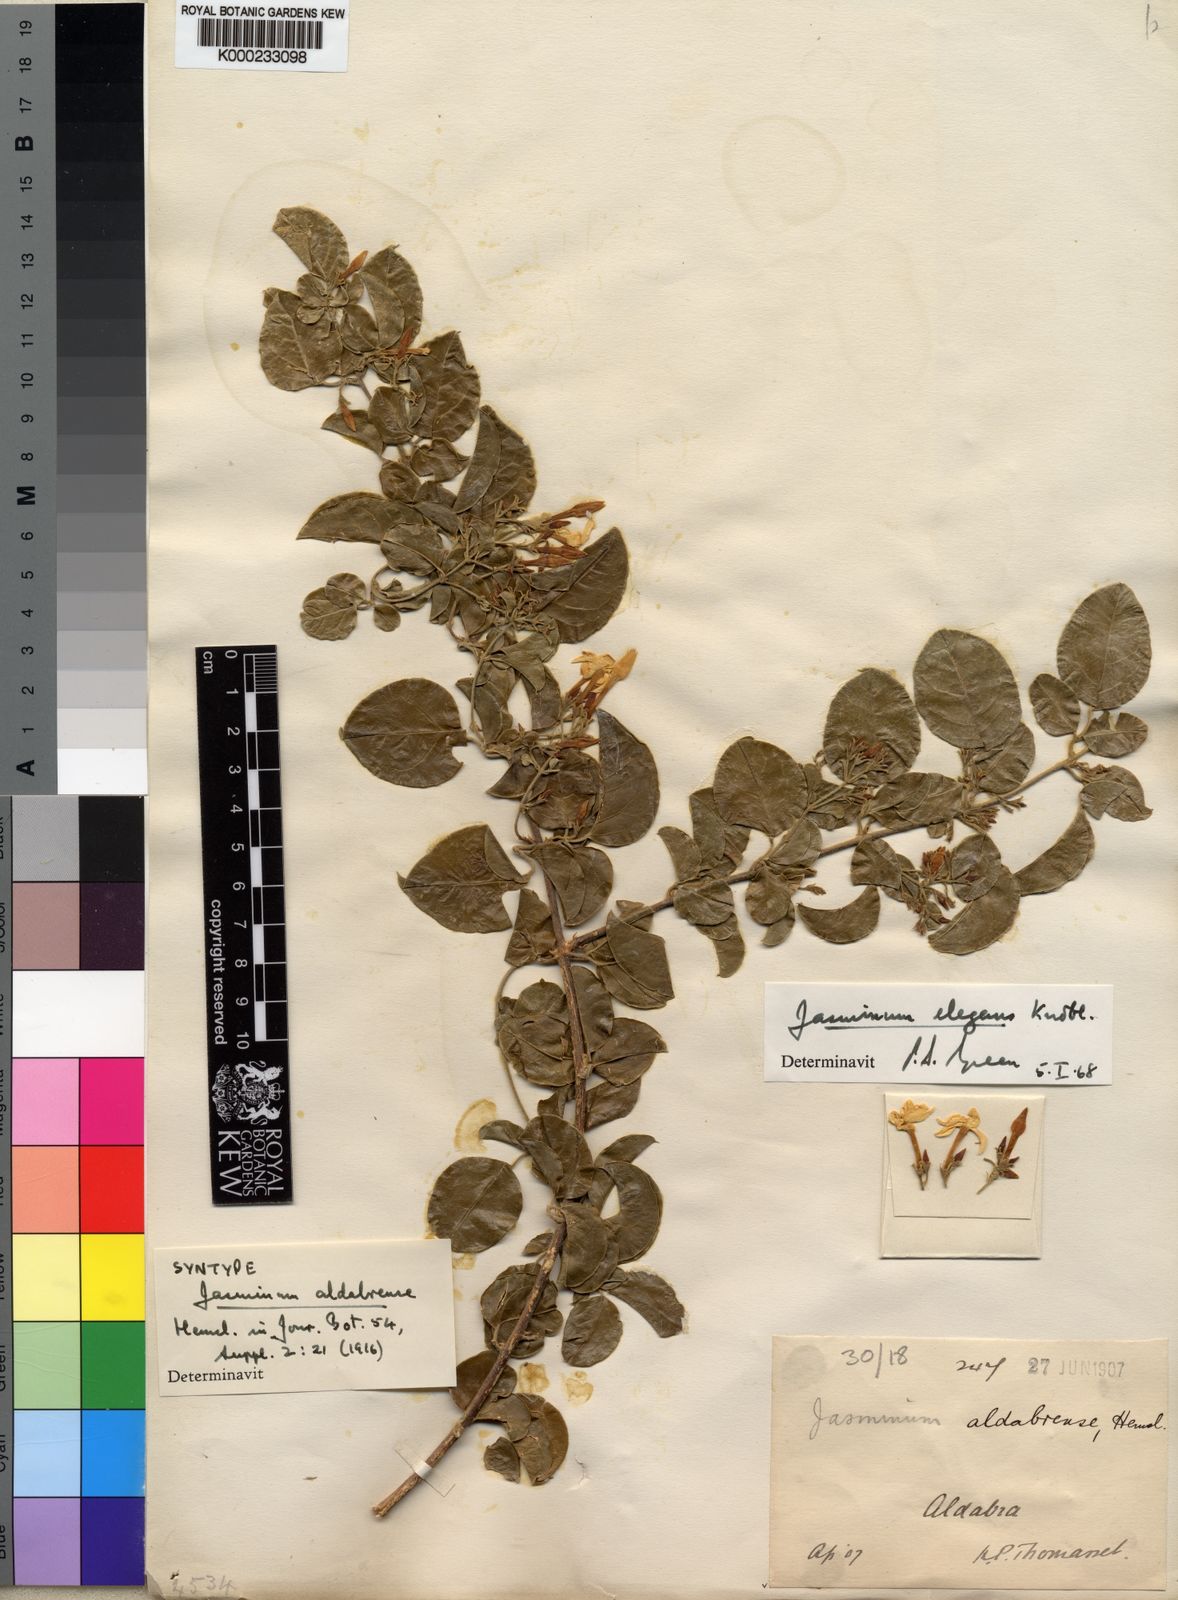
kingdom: Plantae
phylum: Tracheophyta
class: Magnoliopsida
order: Lamiales
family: Oleaceae
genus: Jasminum
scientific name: Jasminum elegans
